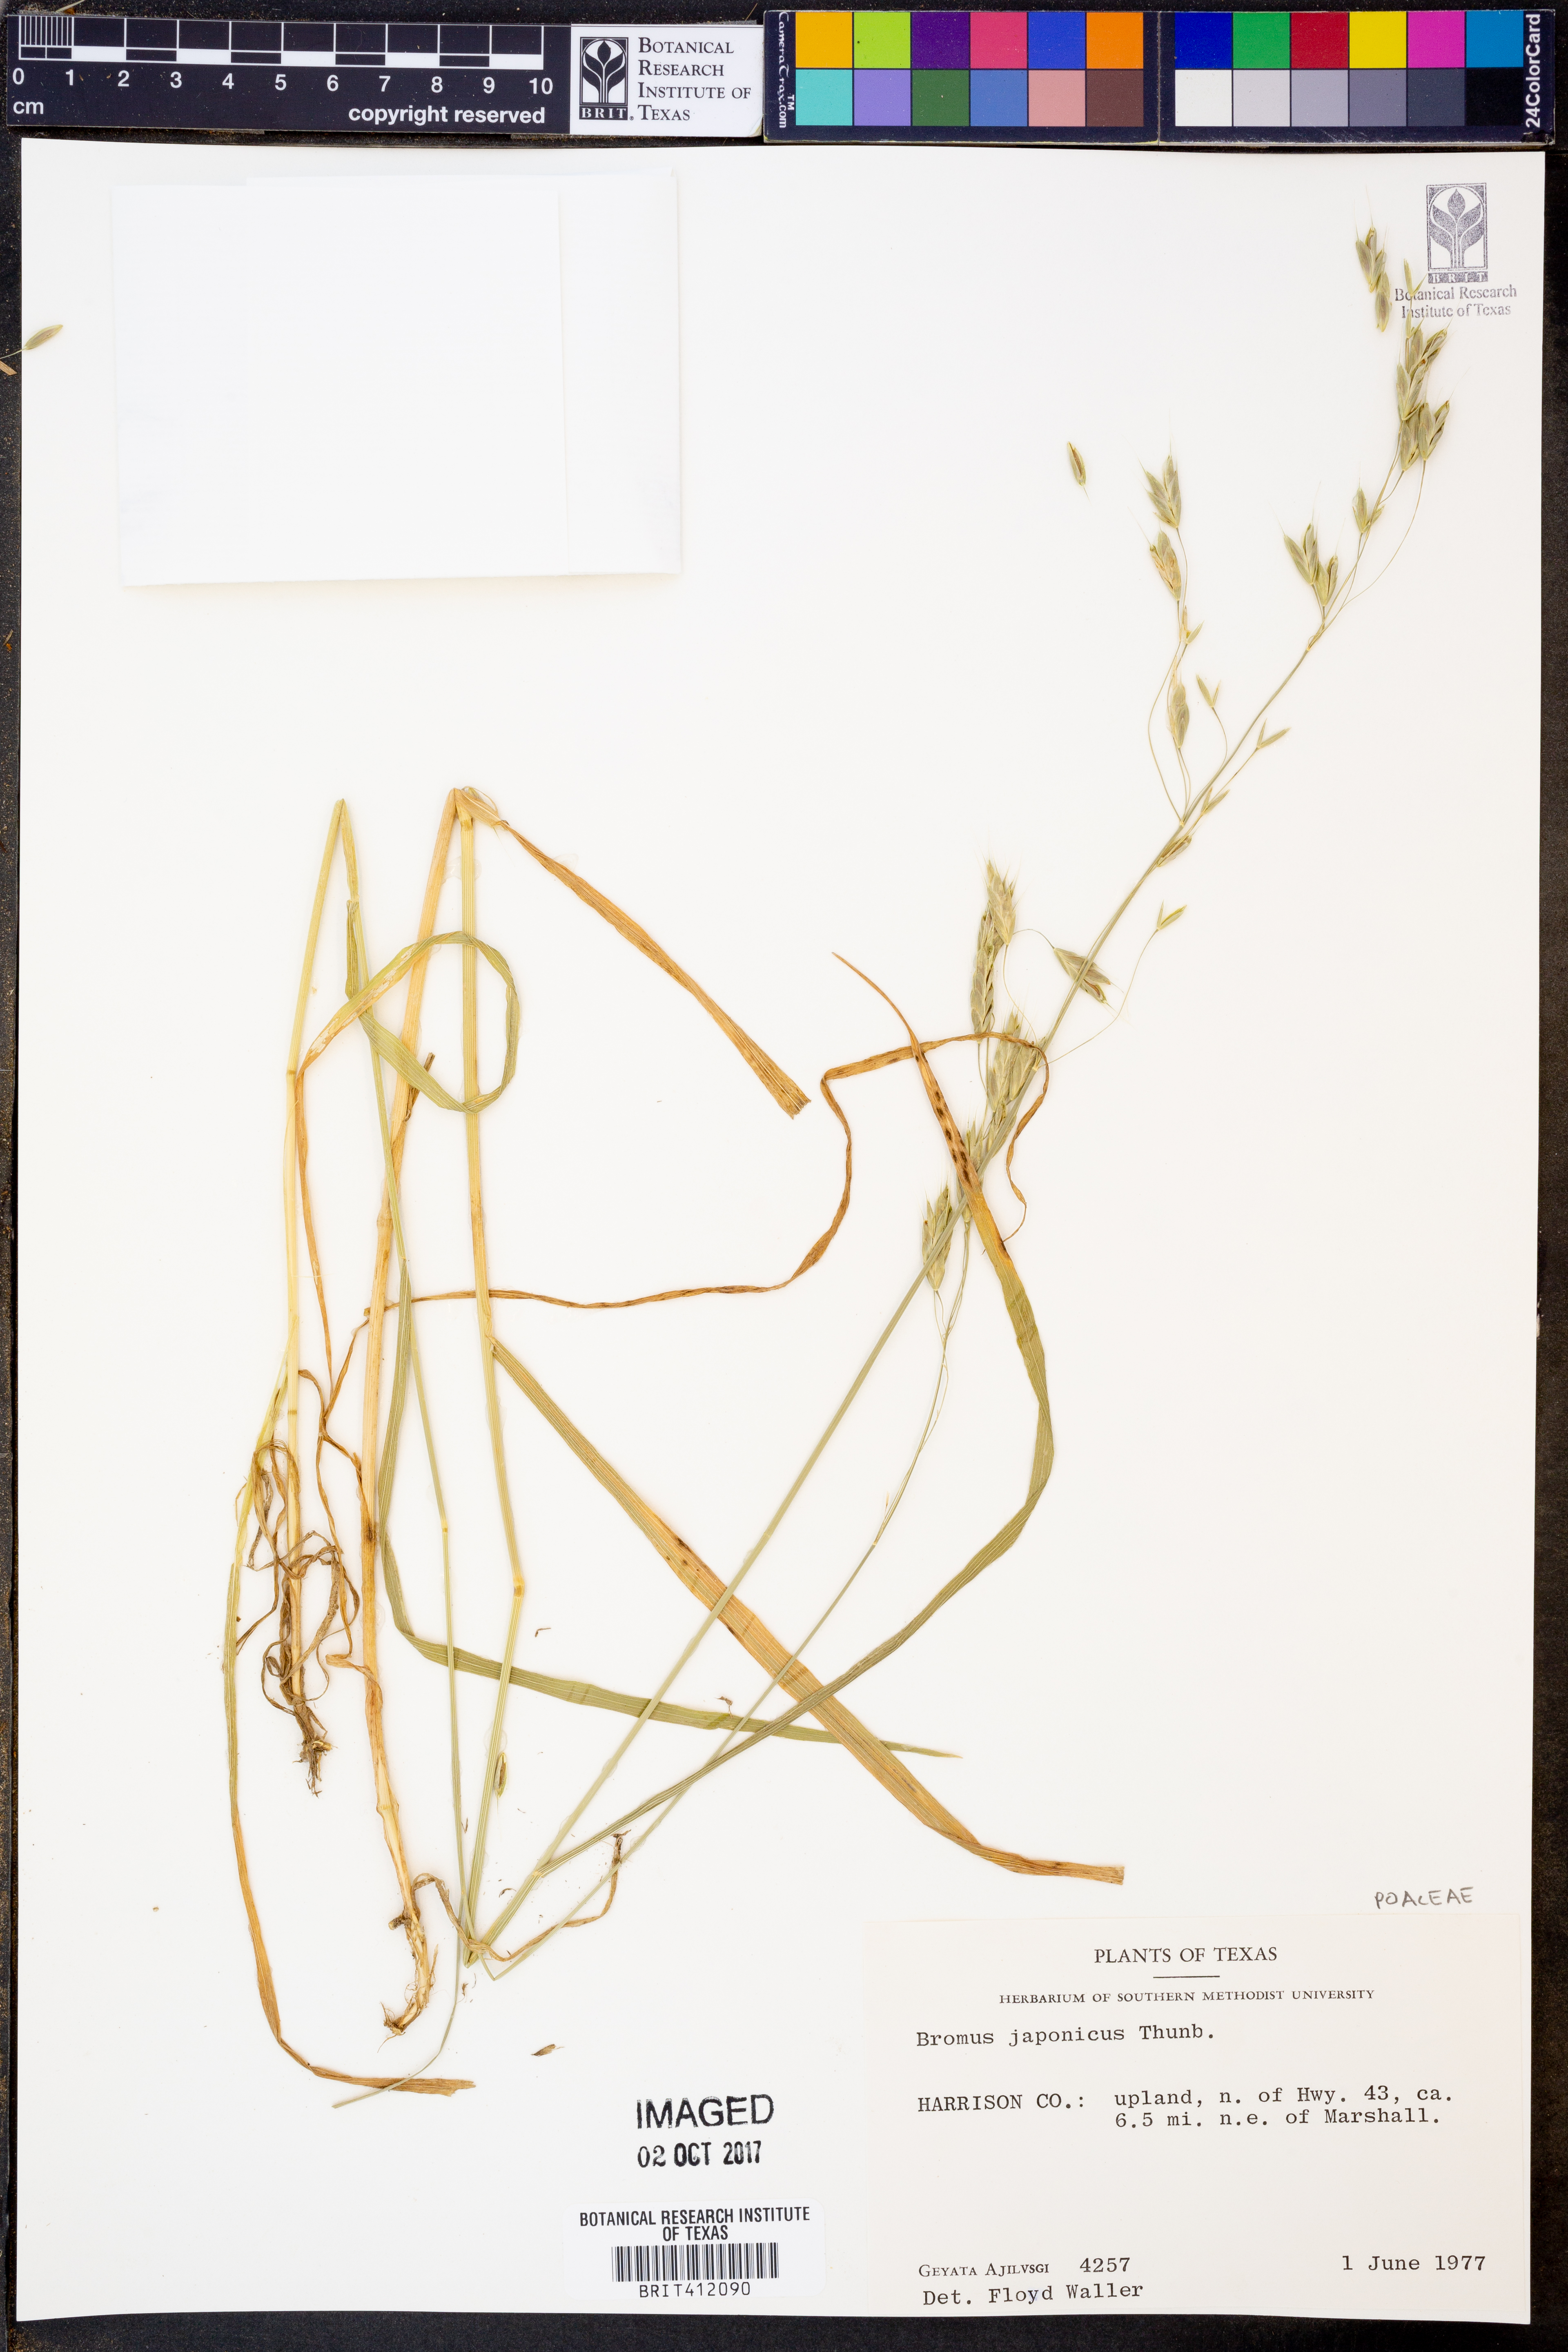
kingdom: Plantae
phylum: Tracheophyta
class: Liliopsida
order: Poales
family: Poaceae
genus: Bromus
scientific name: Bromus japonicus
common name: Japanese brome
